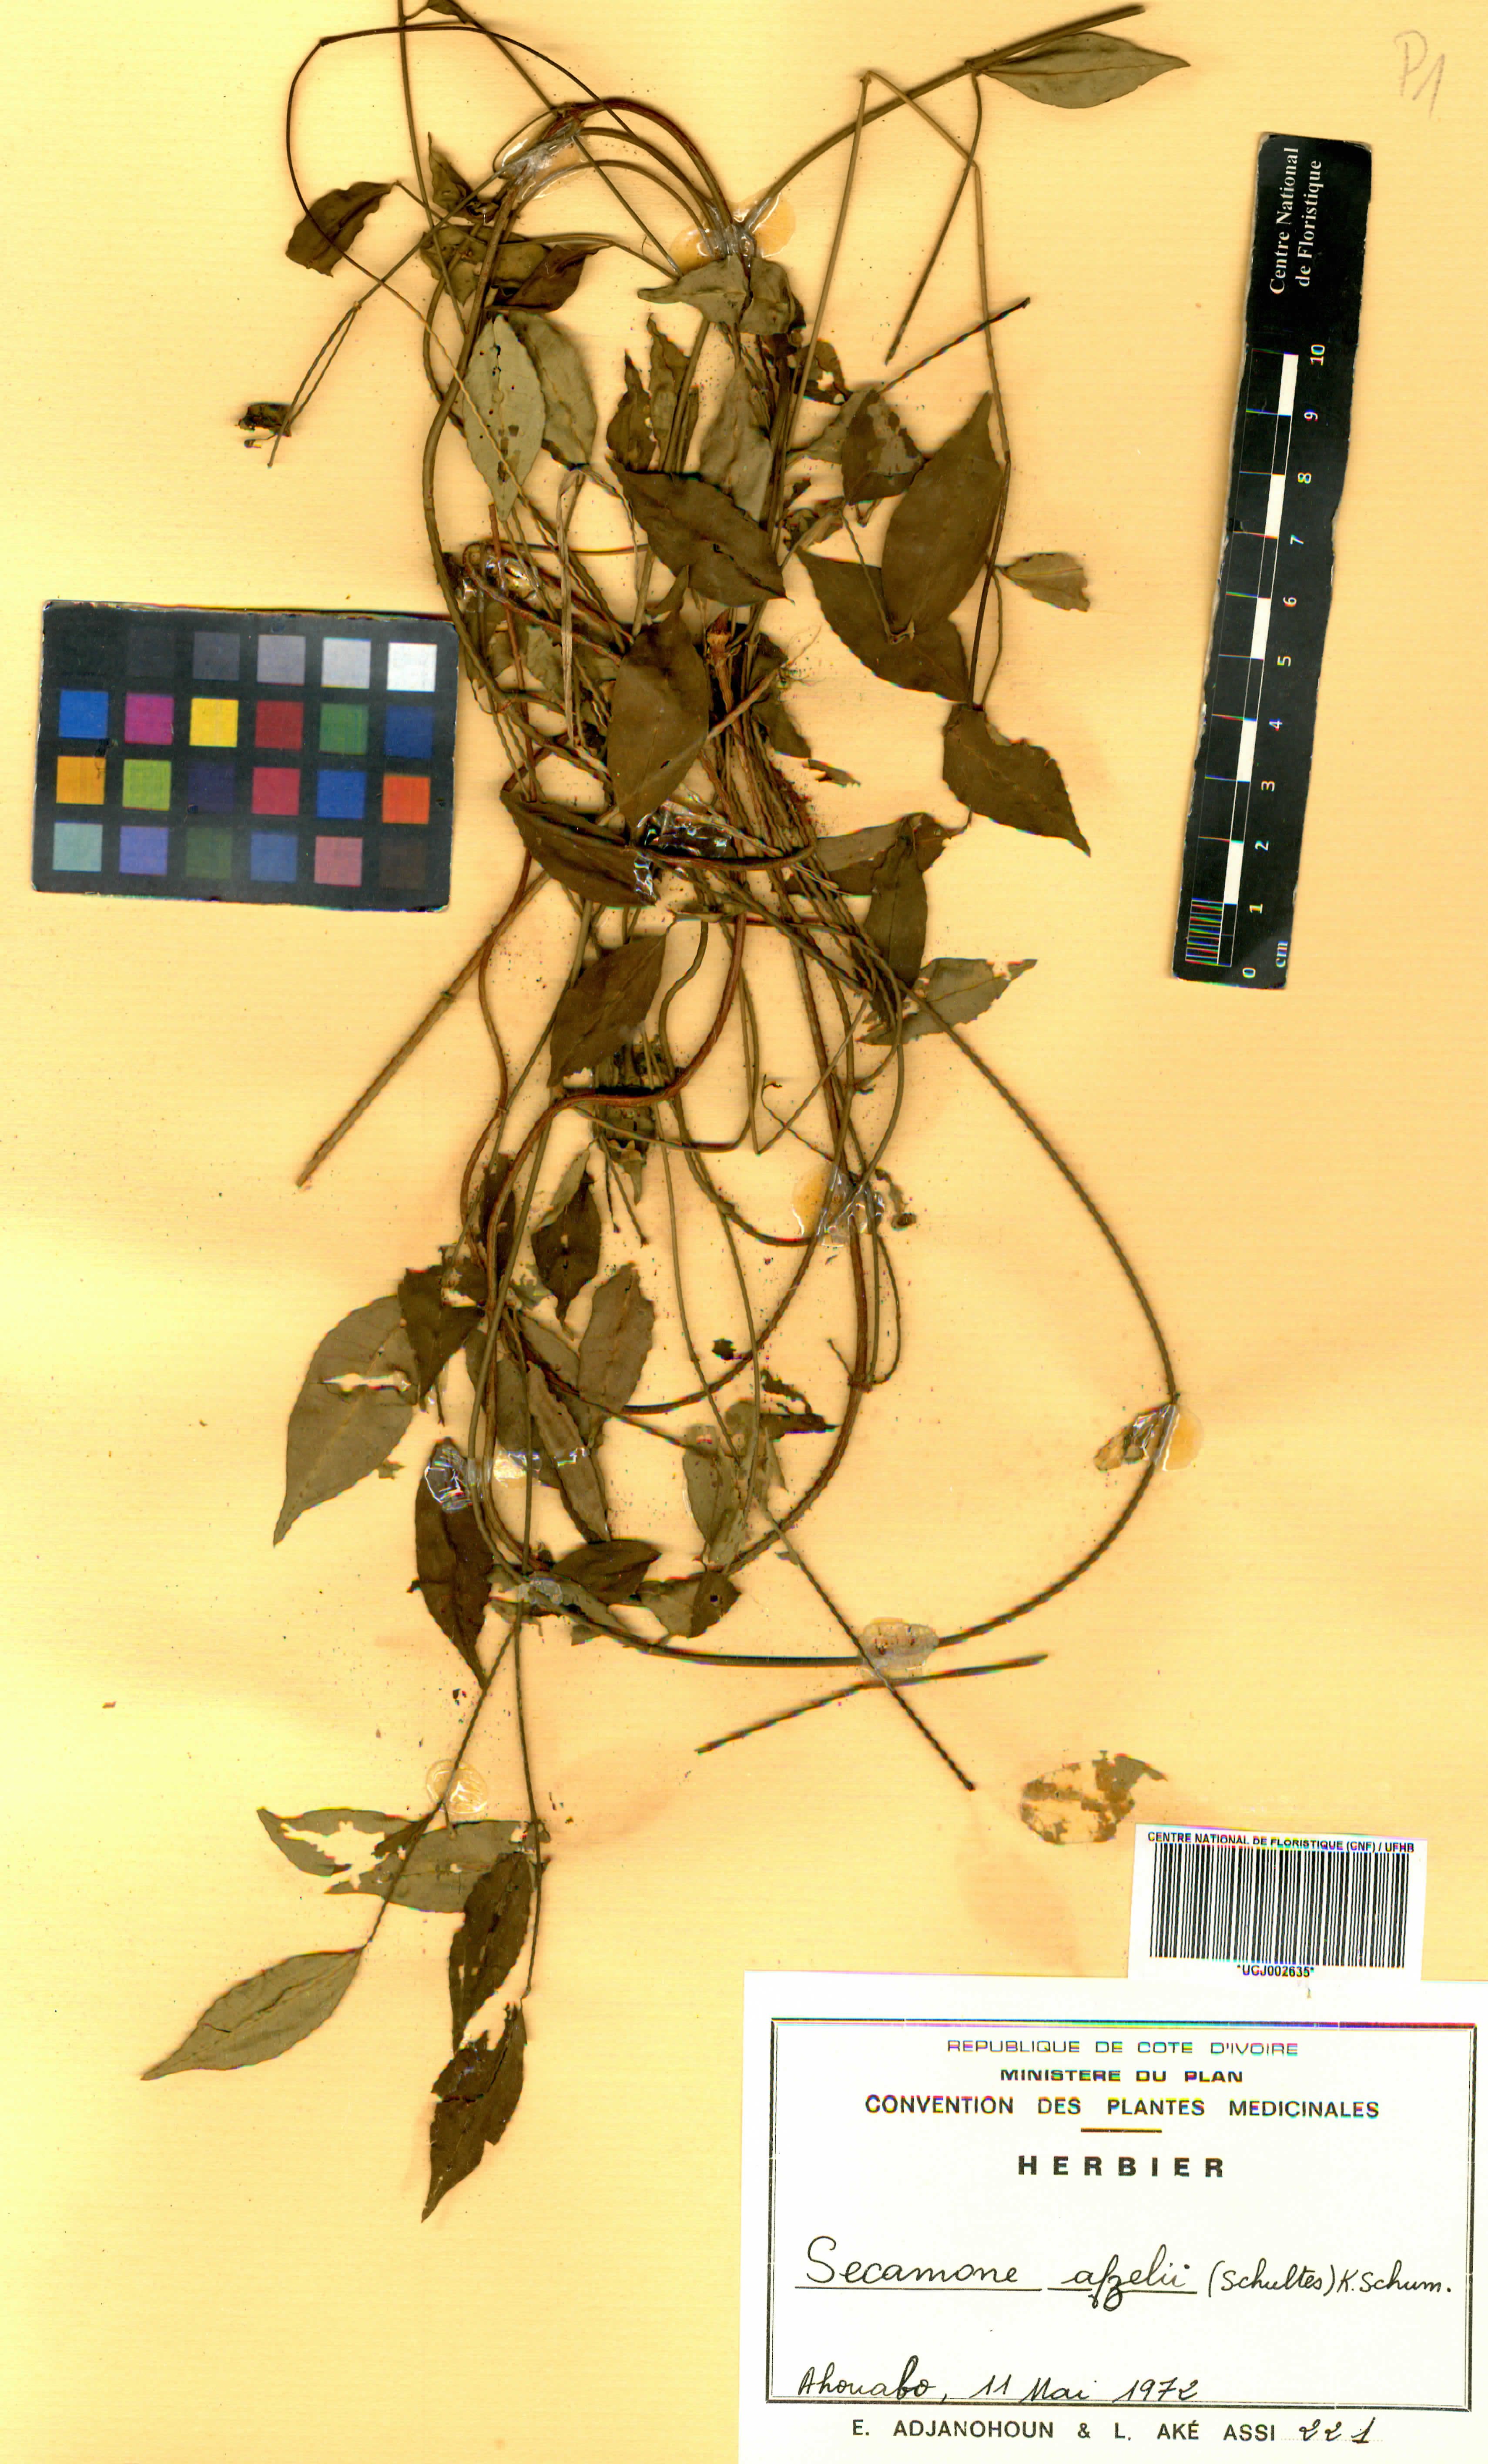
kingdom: Plantae
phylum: Tracheophyta
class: Magnoliopsida
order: Gentianales
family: Apocynaceae
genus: Secamone
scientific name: Secamone afzelii
